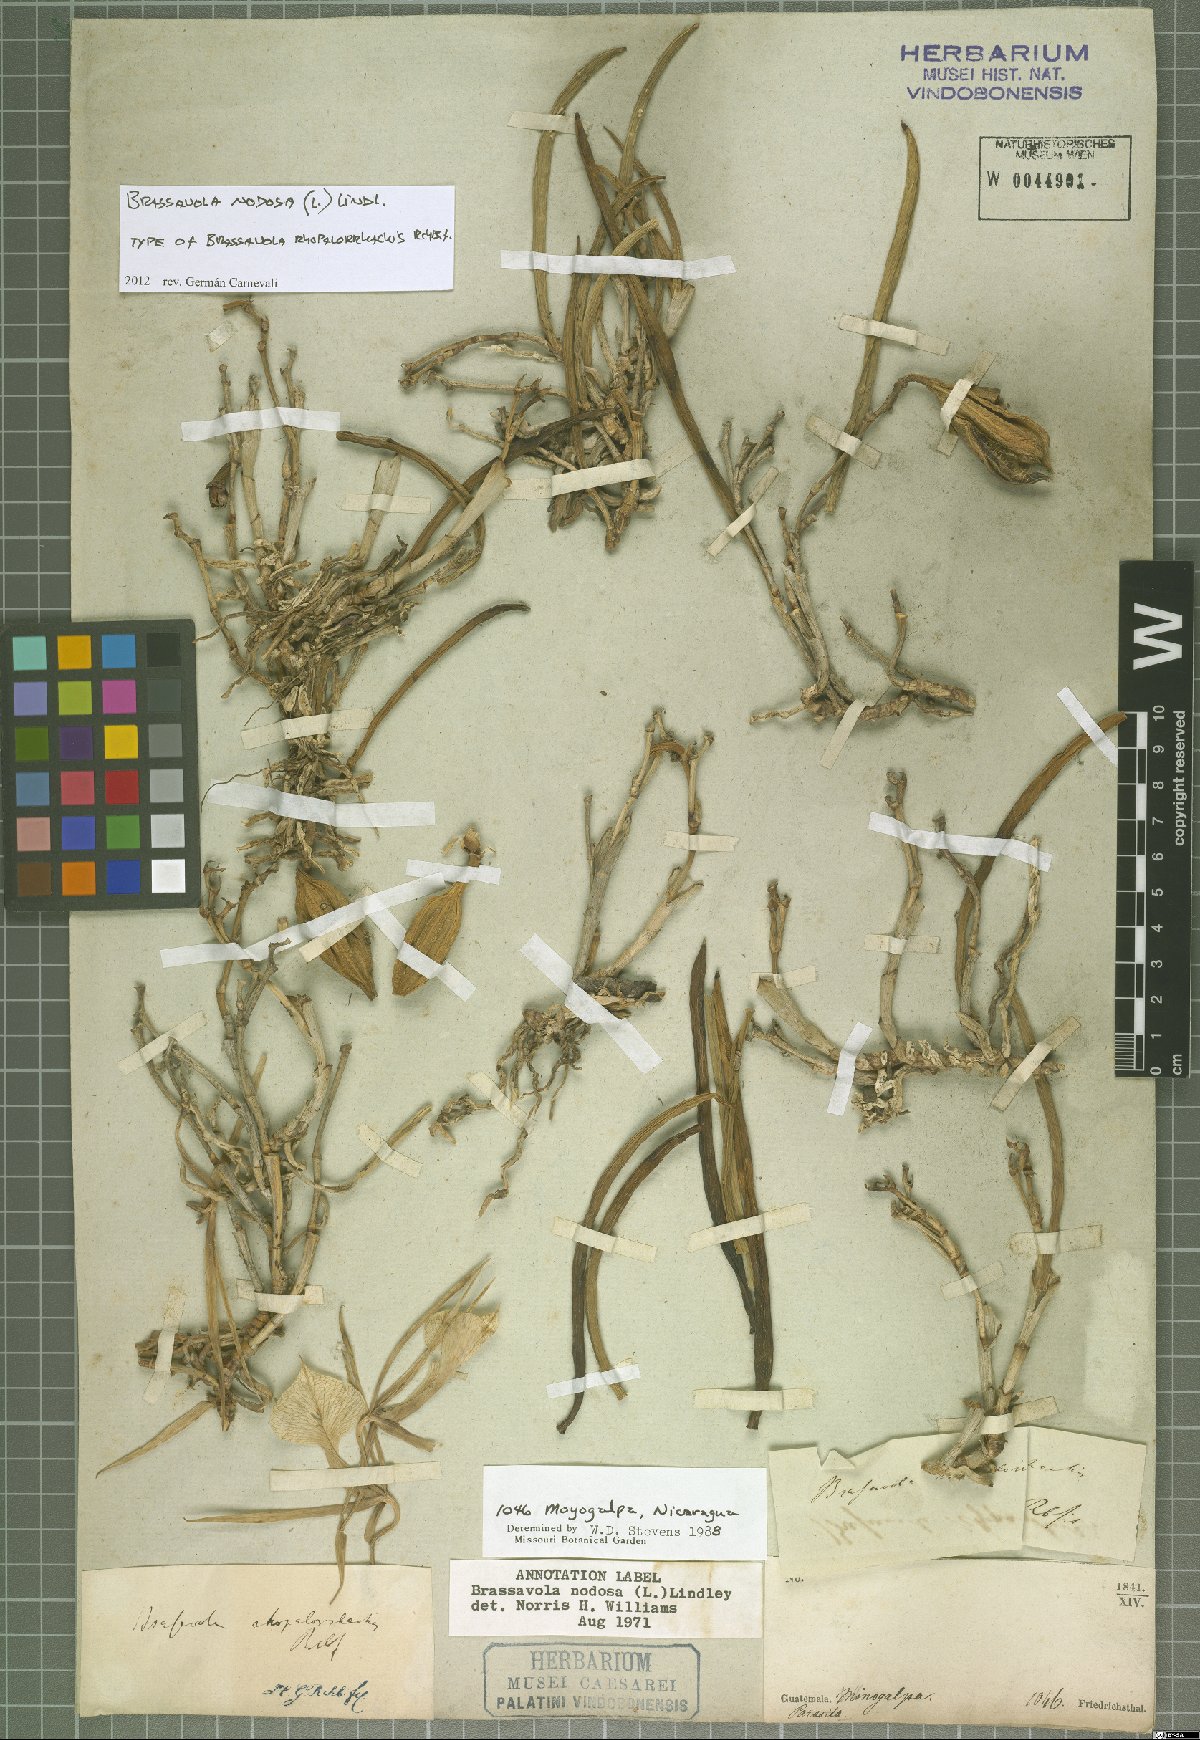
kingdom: Plantae
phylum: Tracheophyta
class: Liliopsida
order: Asparagales
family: Orchidaceae
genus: Brassavola
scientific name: Brassavola nodosa
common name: Lady of the night
